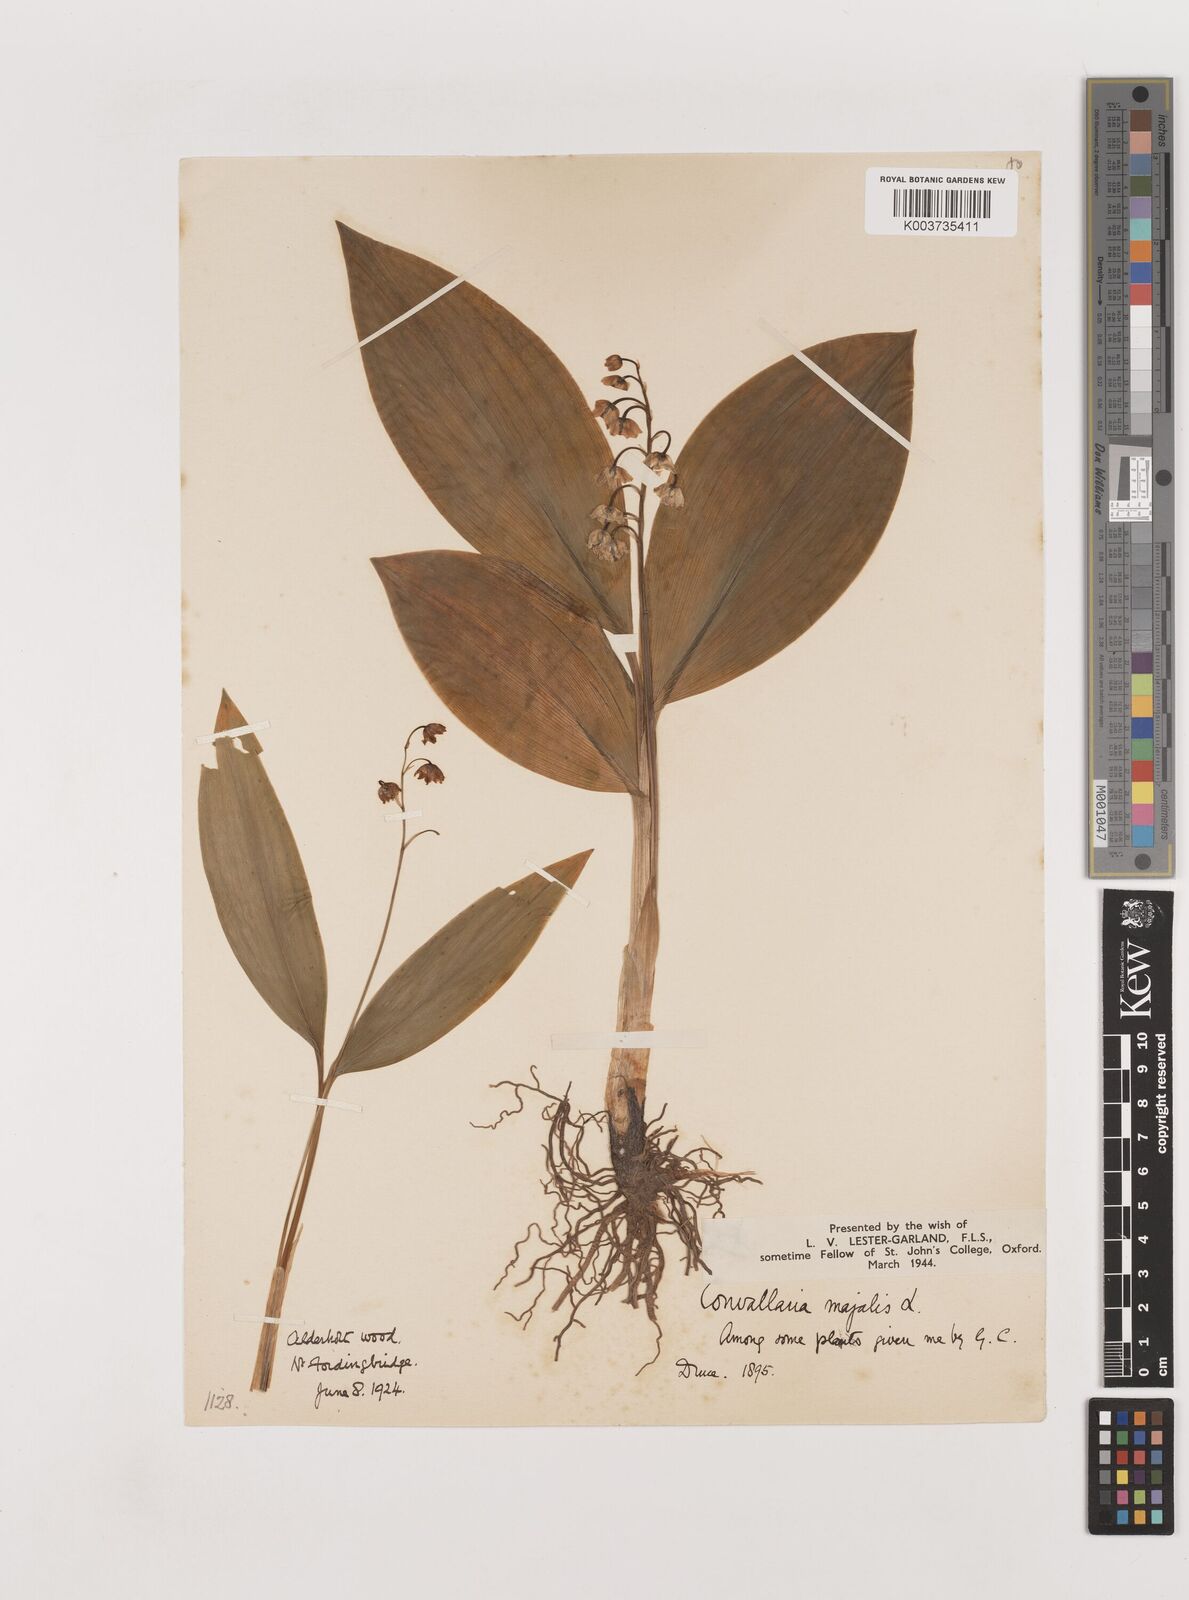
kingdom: Plantae
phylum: Tracheophyta
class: Liliopsida
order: Asparagales
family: Asparagaceae
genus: Convallaria
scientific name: Convallaria majalis
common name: Lily-of-the-valley
